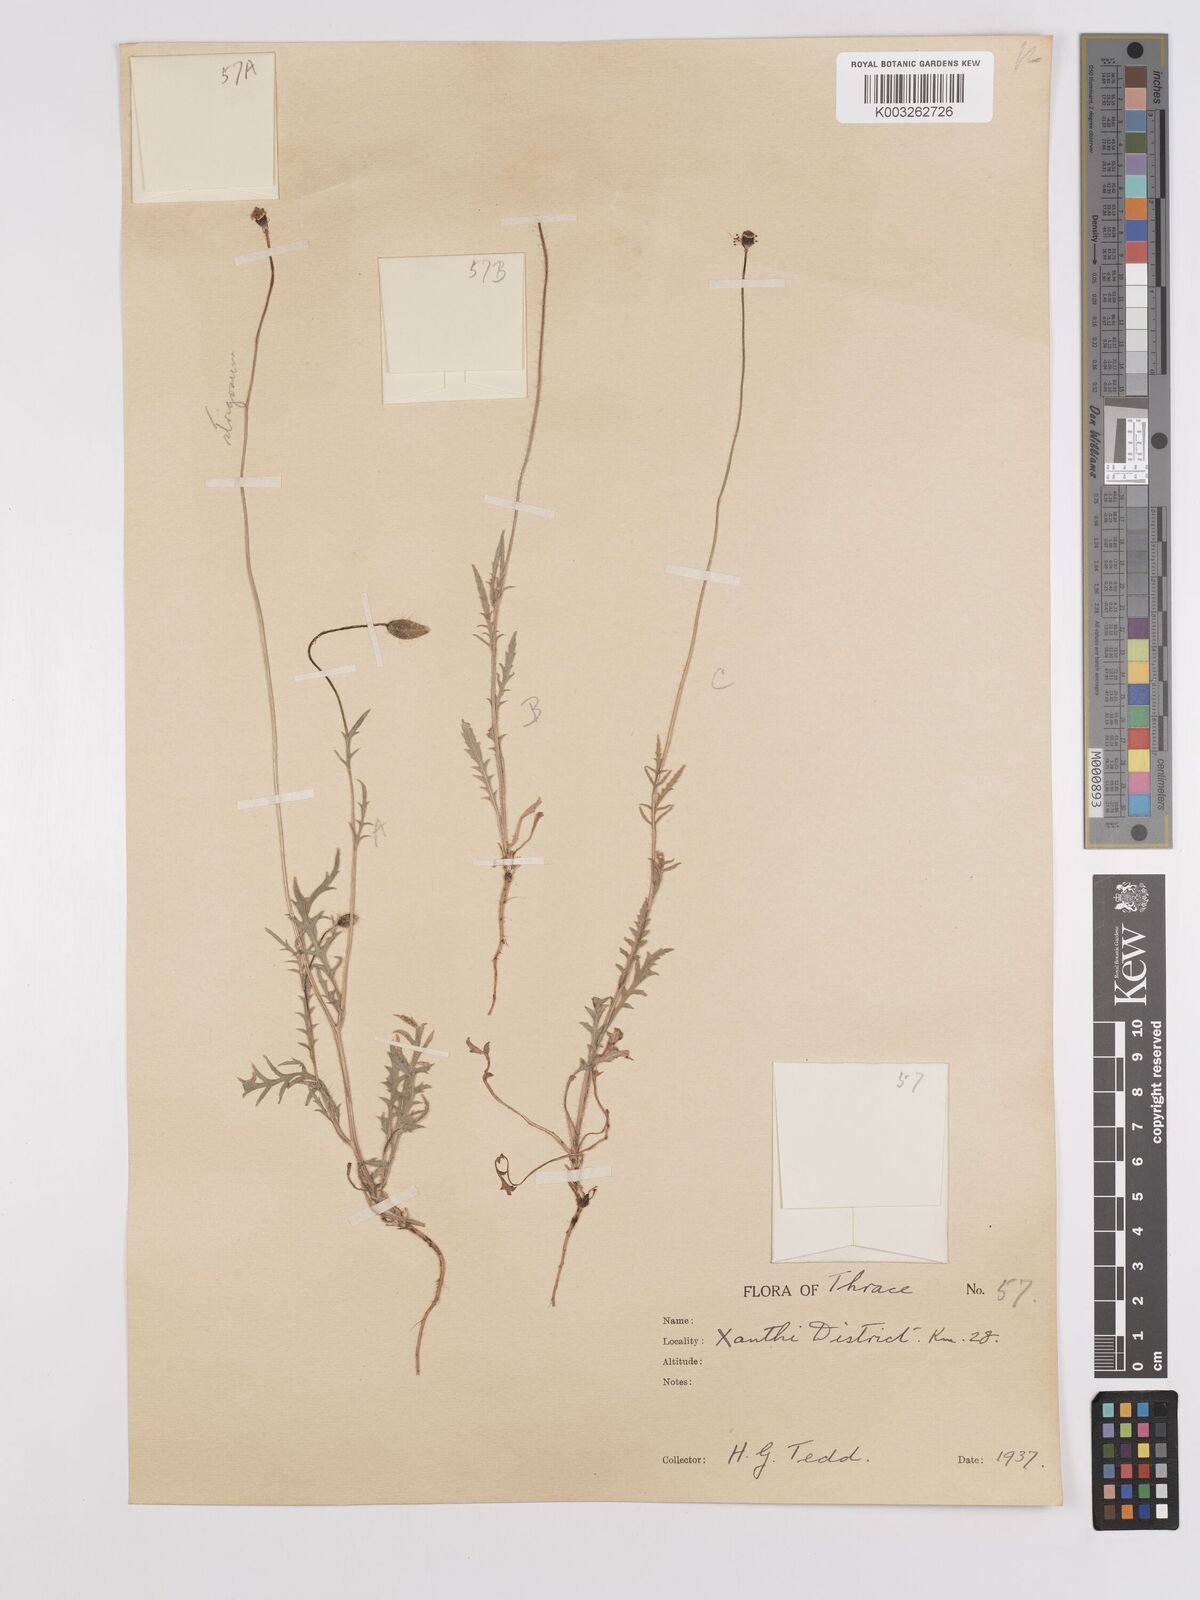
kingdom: Plantae
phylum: Tracheophyta
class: Magnoliopsida
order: Ranunculales
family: Papaveraceae
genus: Papaver
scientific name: Papaver
